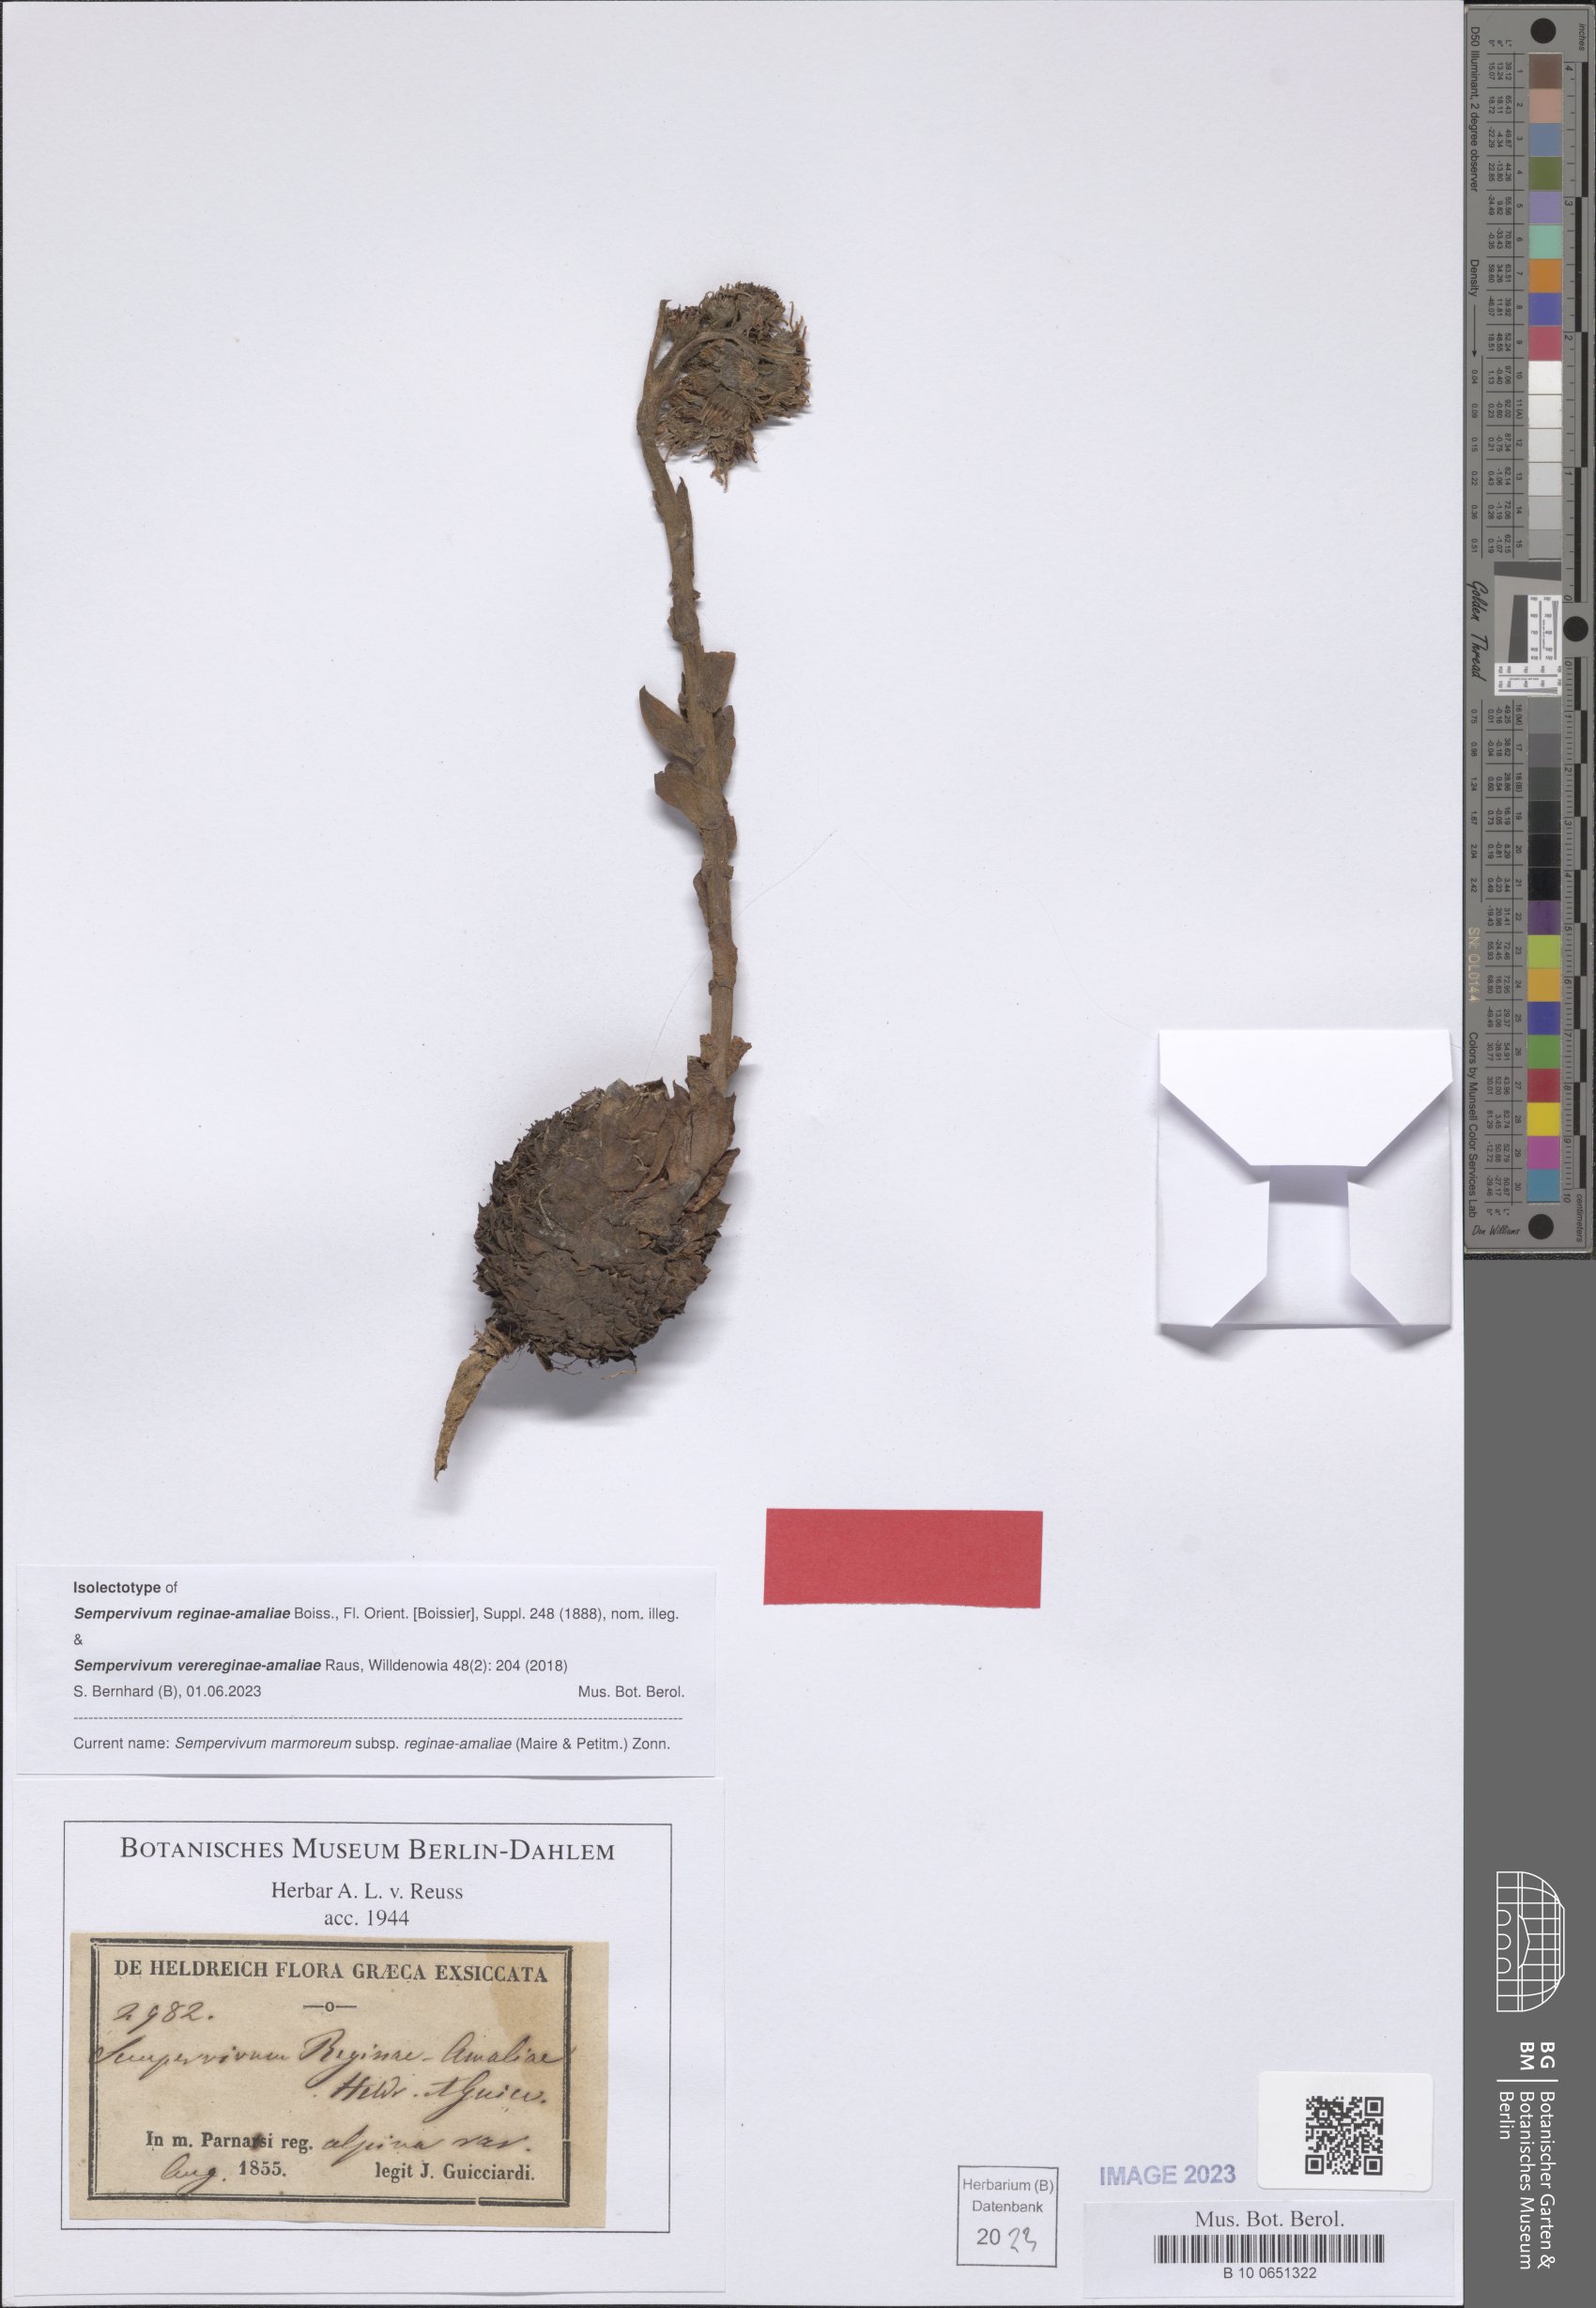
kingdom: Plantae
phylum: Tracheophyta
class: Magnoliopsida
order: Saxifragales
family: Crassulaceae
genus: Sempervivum
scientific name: Sempervivum verereginae-amaliae
